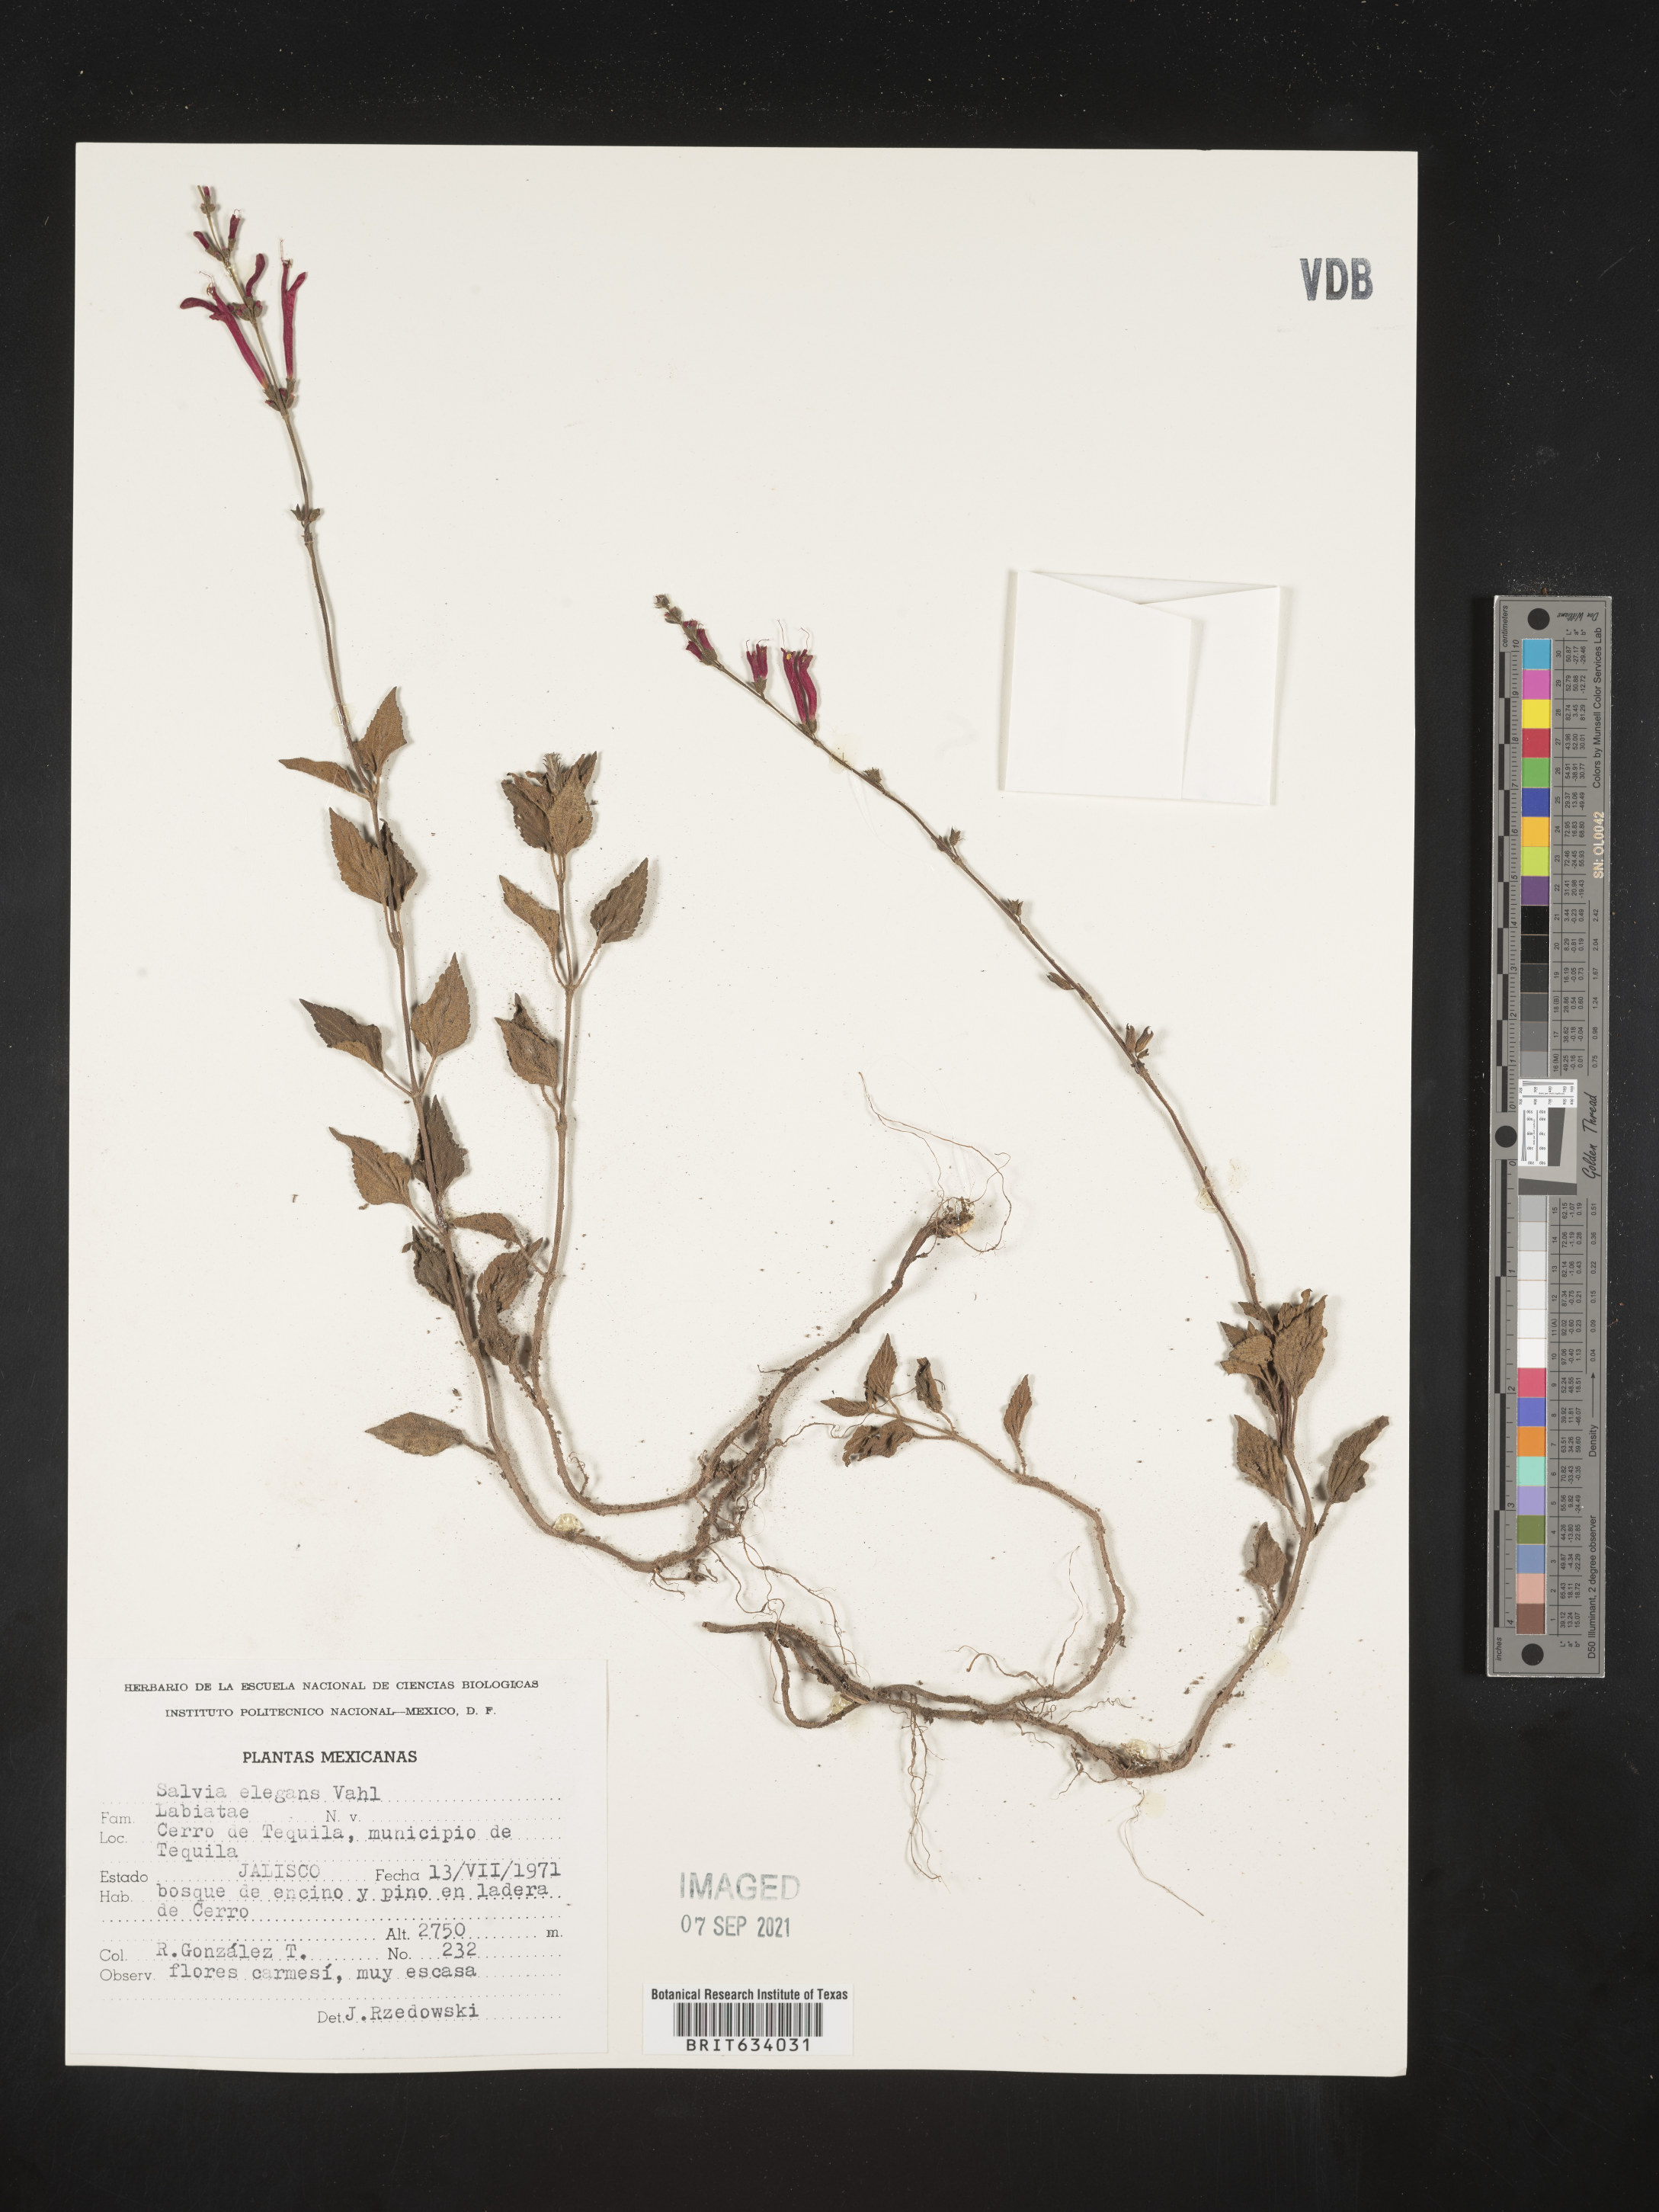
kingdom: Plantae
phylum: Tracheophyta
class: Magnoliopsida
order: Lamiales
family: Lamiaceae
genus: Salvia
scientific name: Salvia
